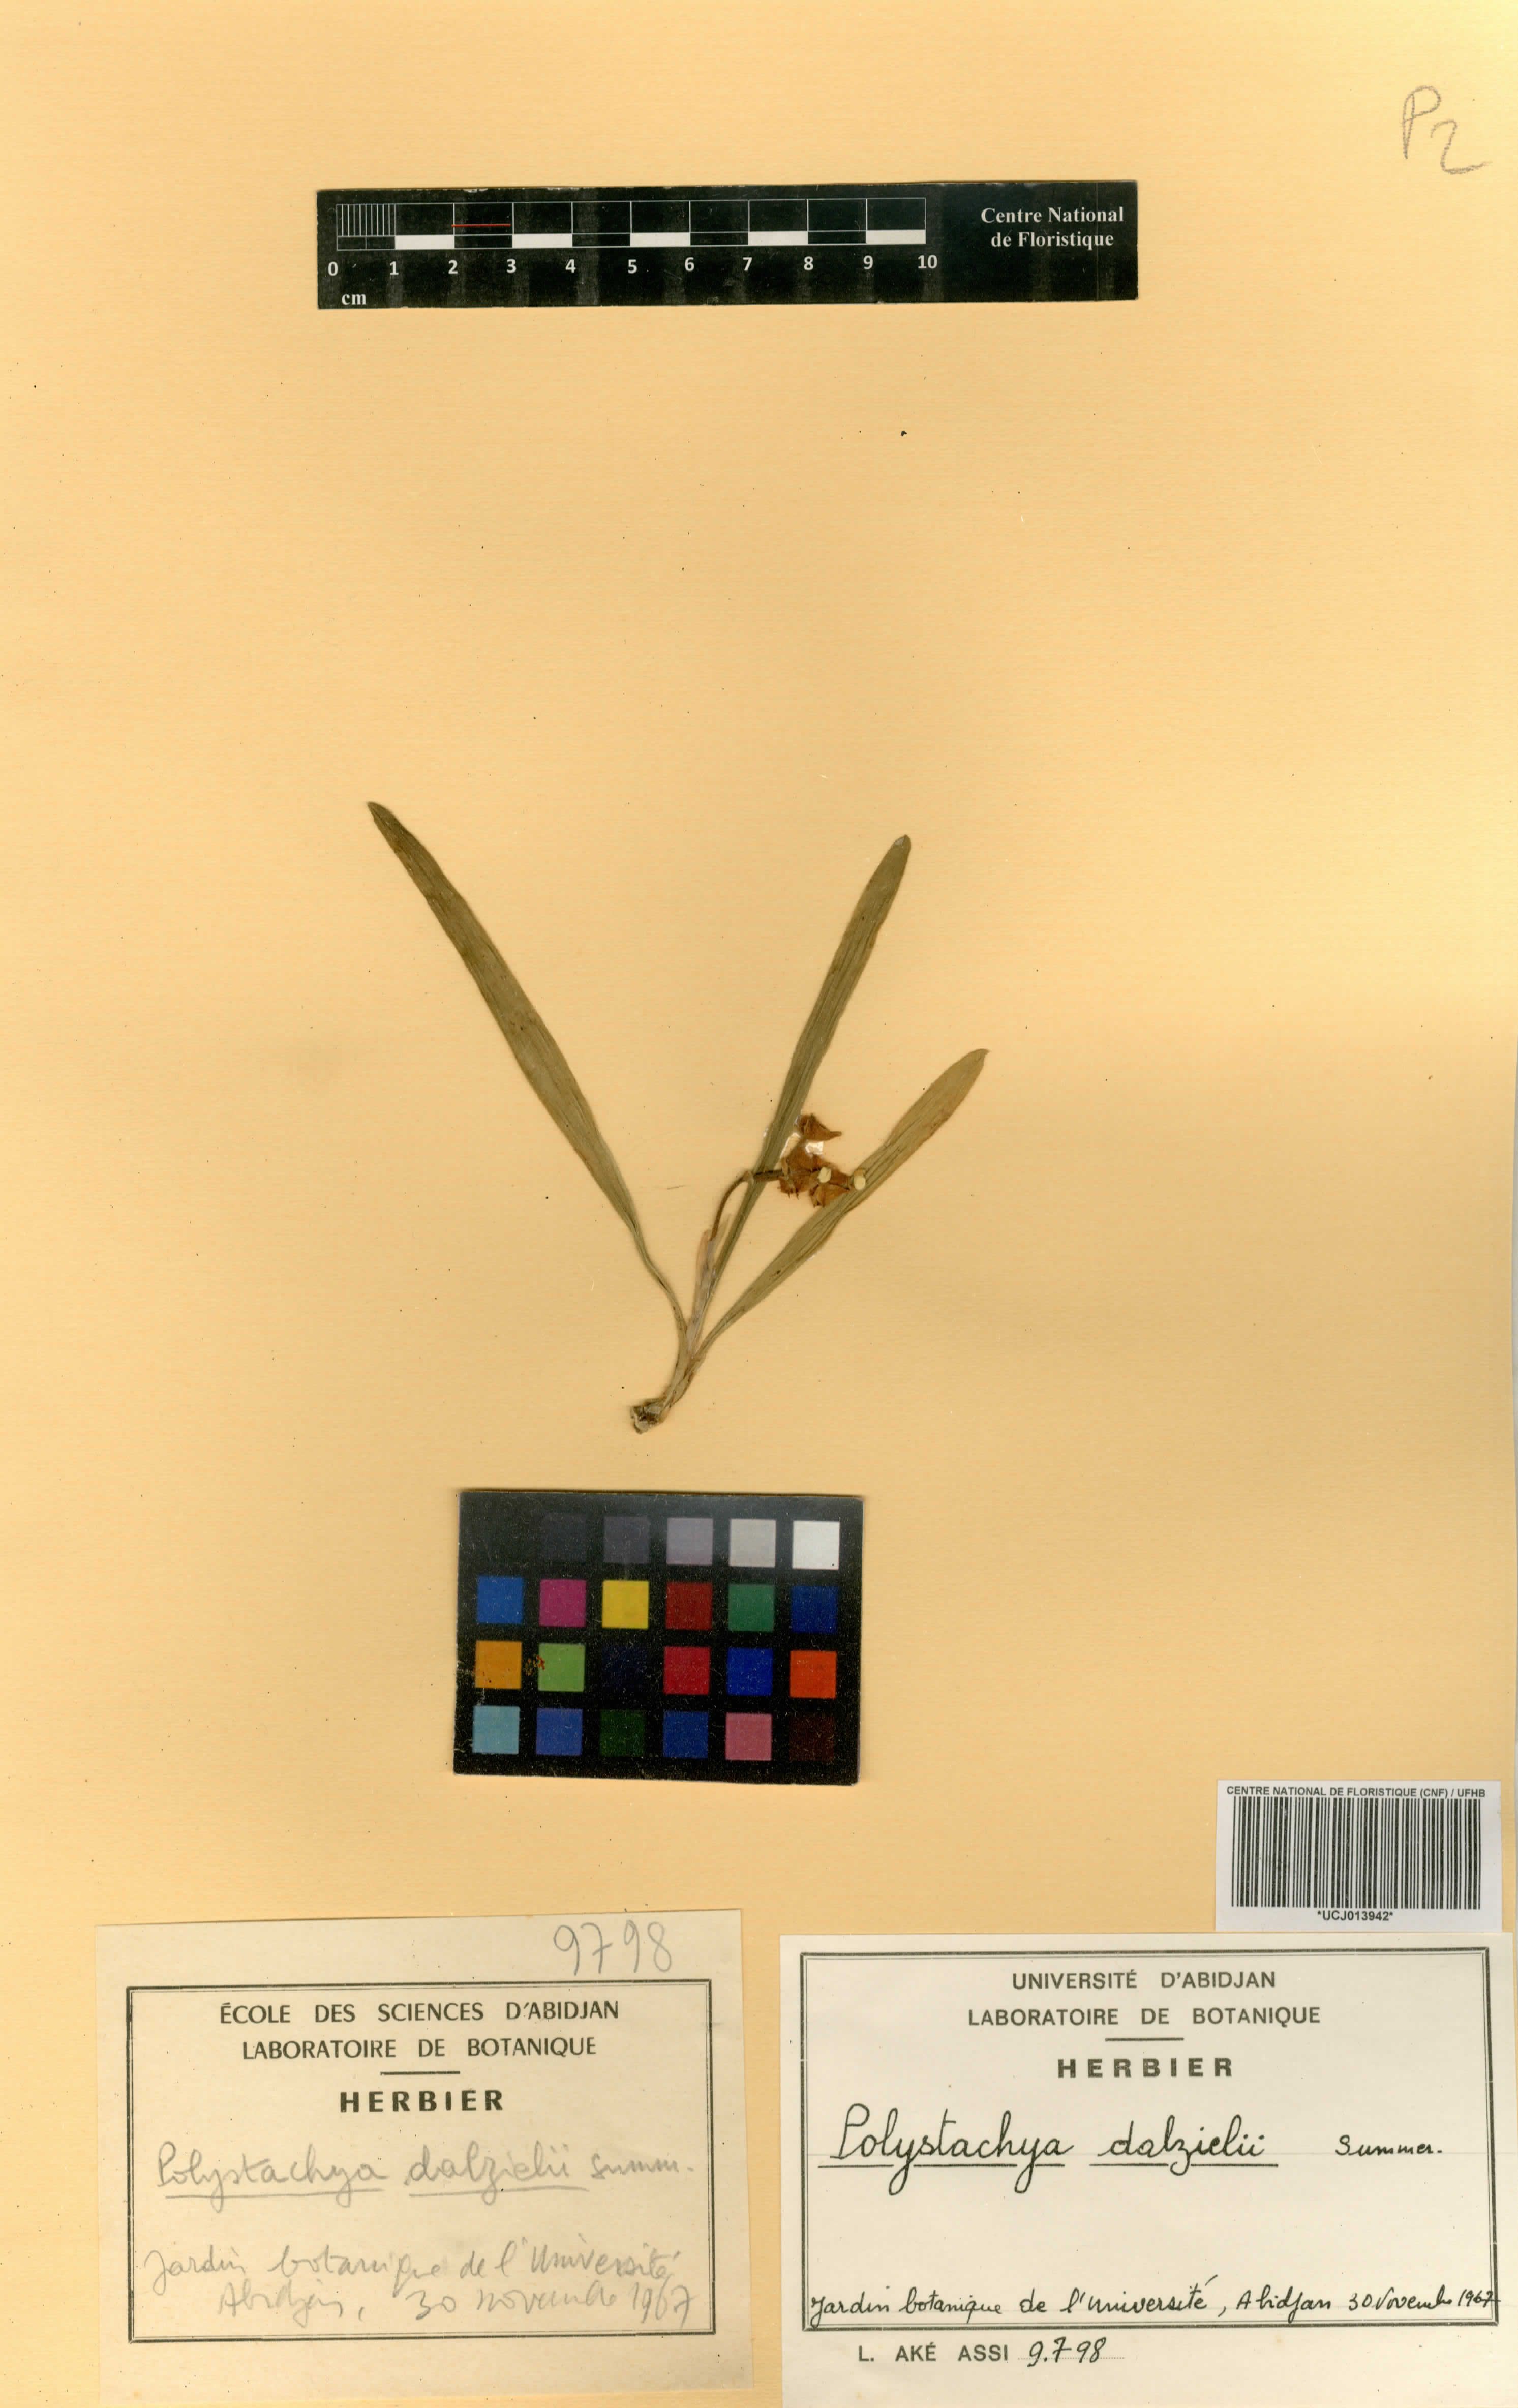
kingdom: Plantae
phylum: Tracheophyta
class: Liliopsida
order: Asparagales
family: Orchidaceae
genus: Polystachya
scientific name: Polystachya dalzielii
